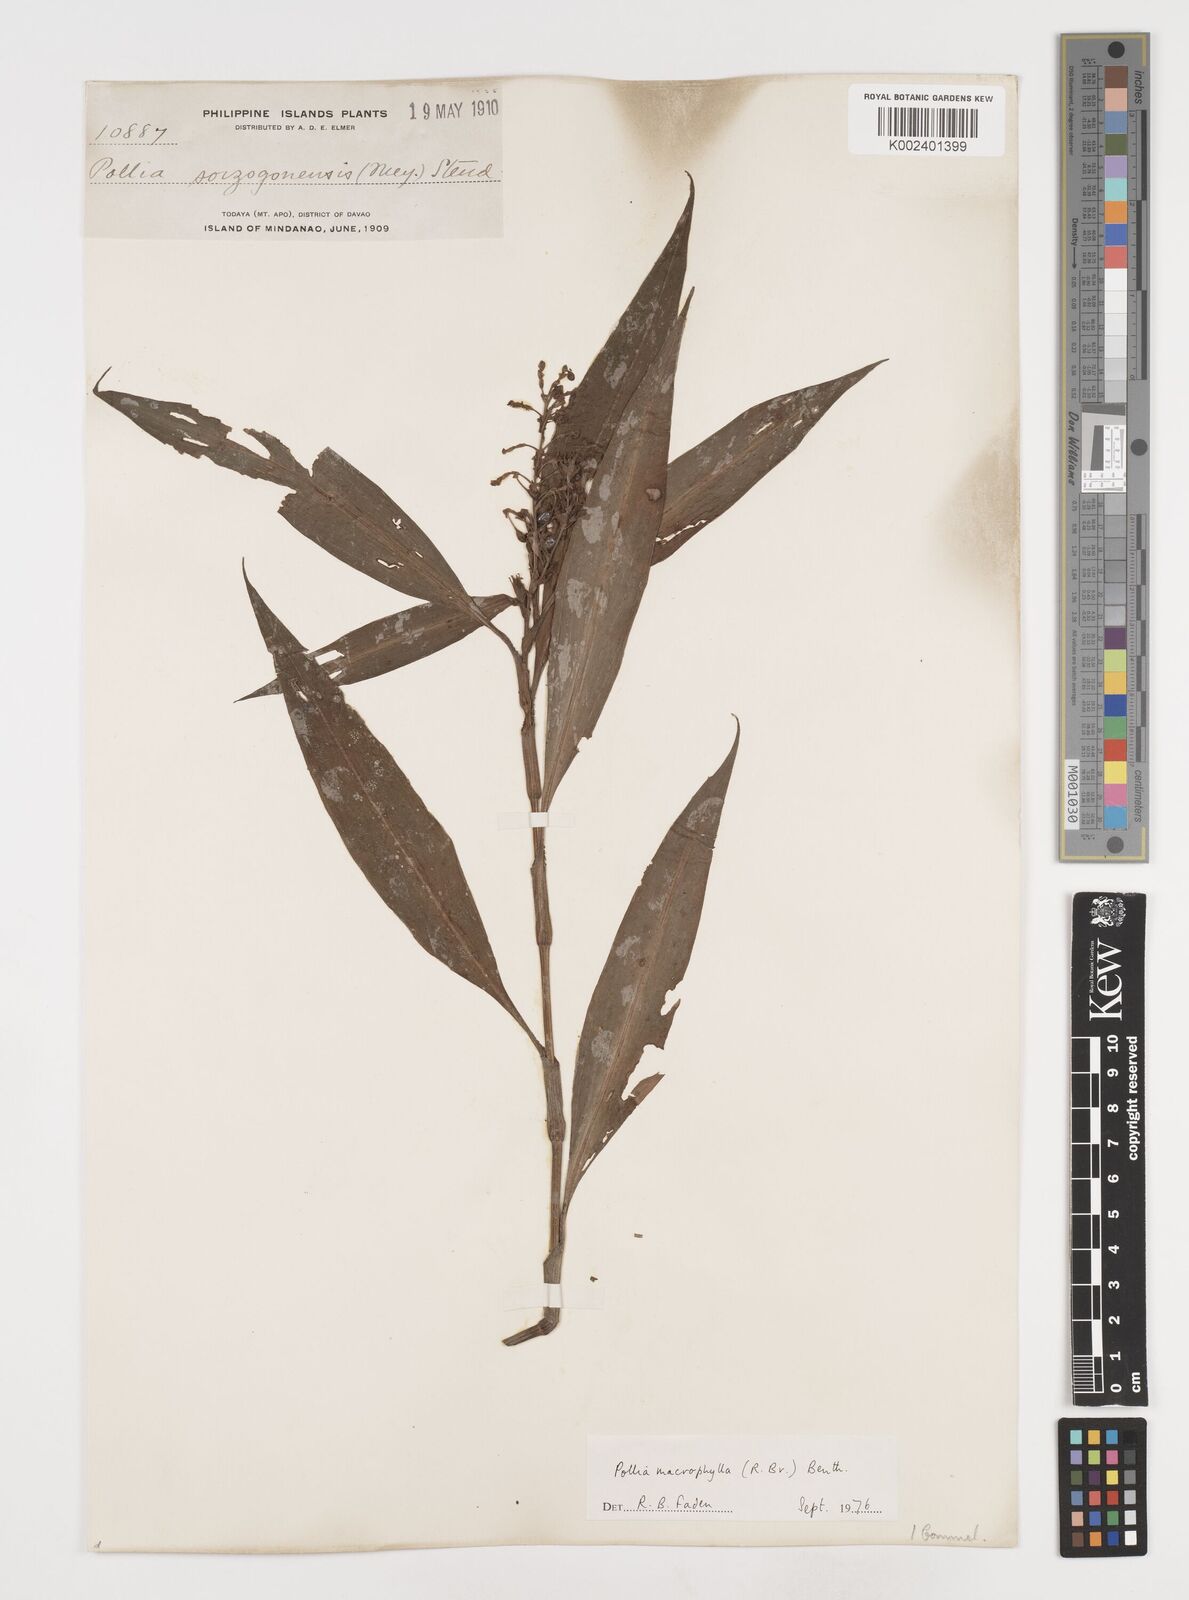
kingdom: Plantae
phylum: Tracheophyta
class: Liliopsida
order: Commelinales
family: Commelinaceae
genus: Pollia
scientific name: Pollia macrophylla
